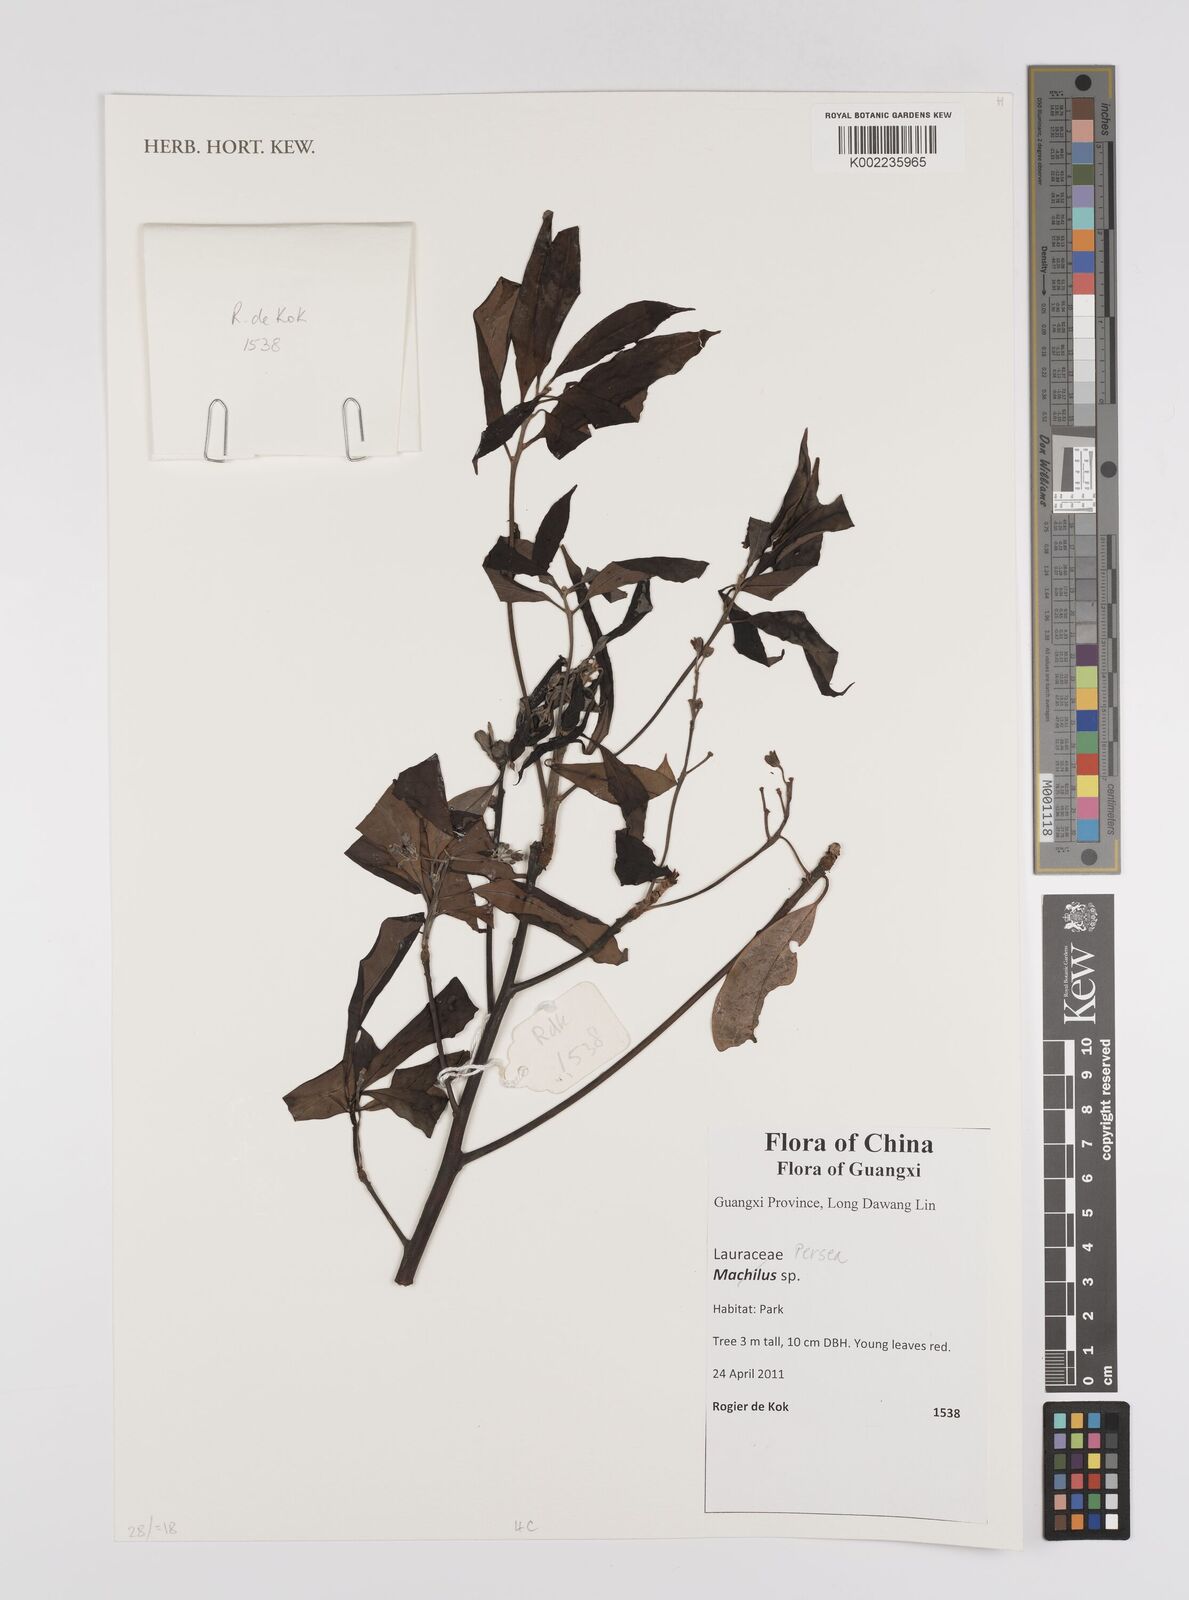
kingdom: Plantae
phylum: Tracheophyta
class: Magnoliopsida
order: Laurales
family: Lauraceae
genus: Persea
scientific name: Persea
